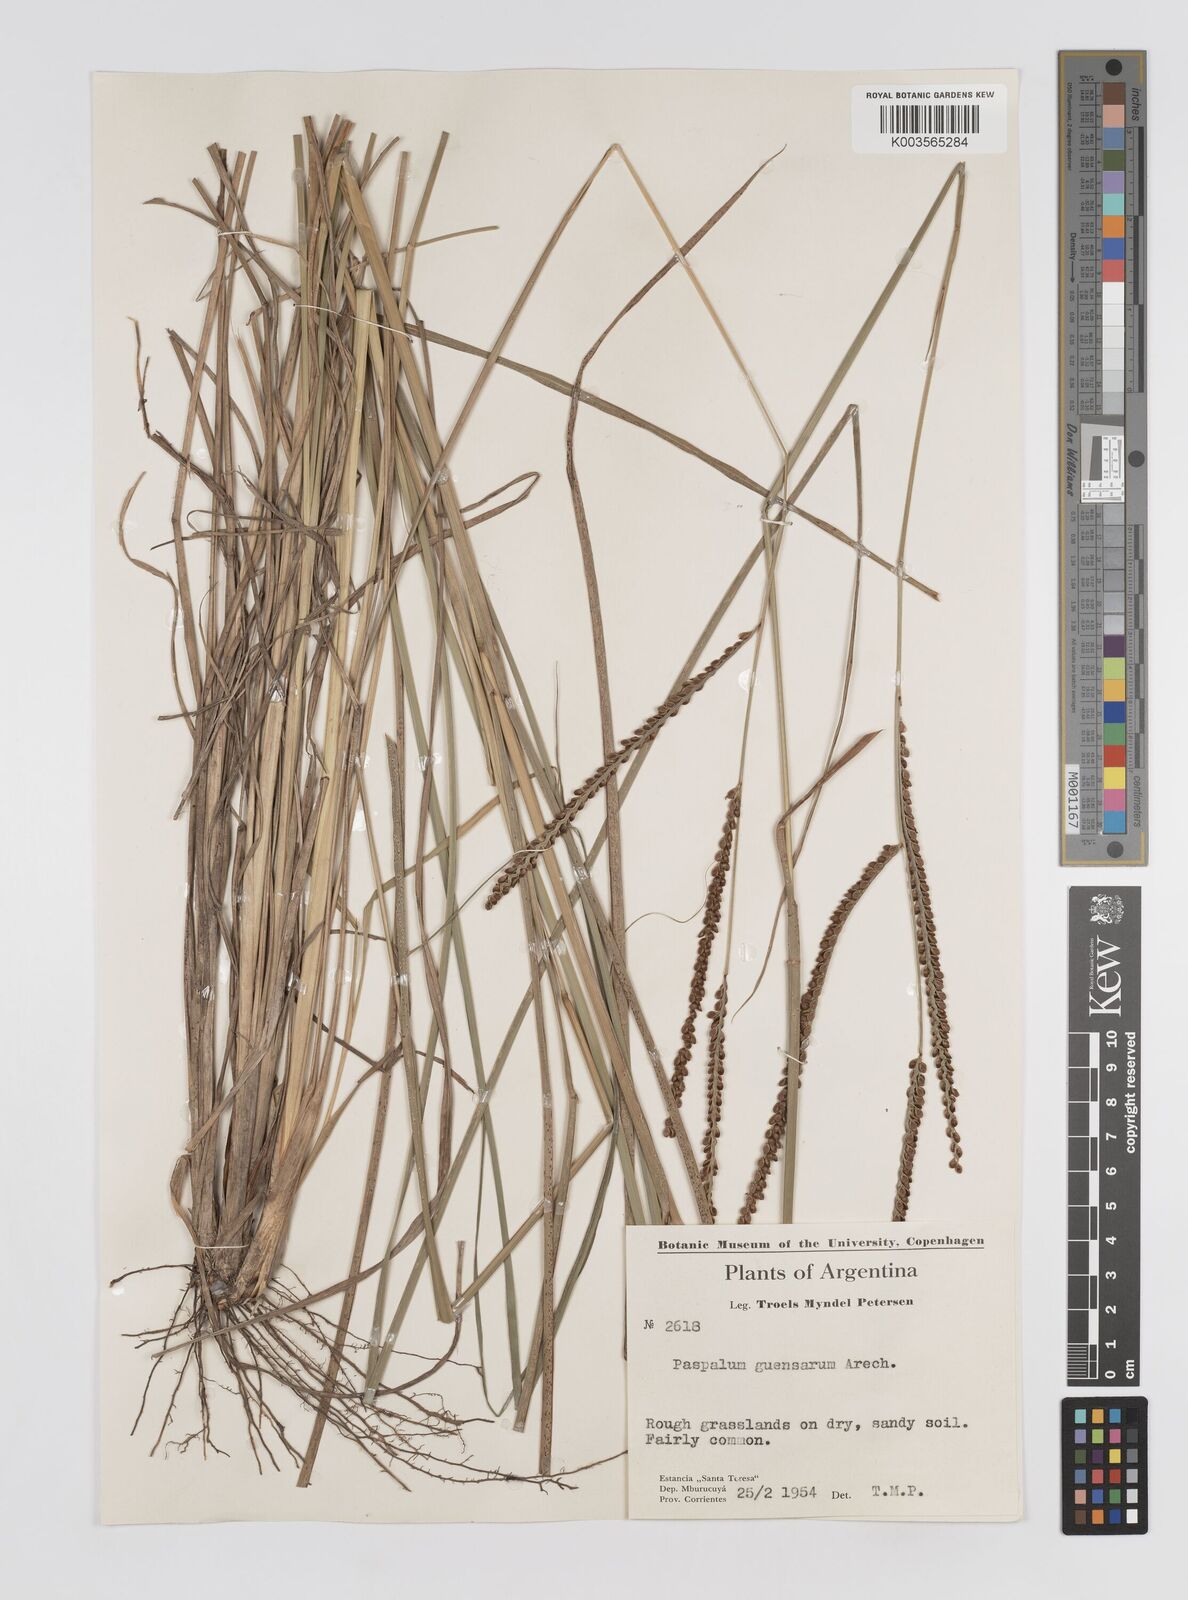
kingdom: Plantae
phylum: Tracheophyta
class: Liliopsida
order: Poales
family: Poaceae
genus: Paspalum
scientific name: Paspalum guenoarum
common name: Wintergreen paspalum
